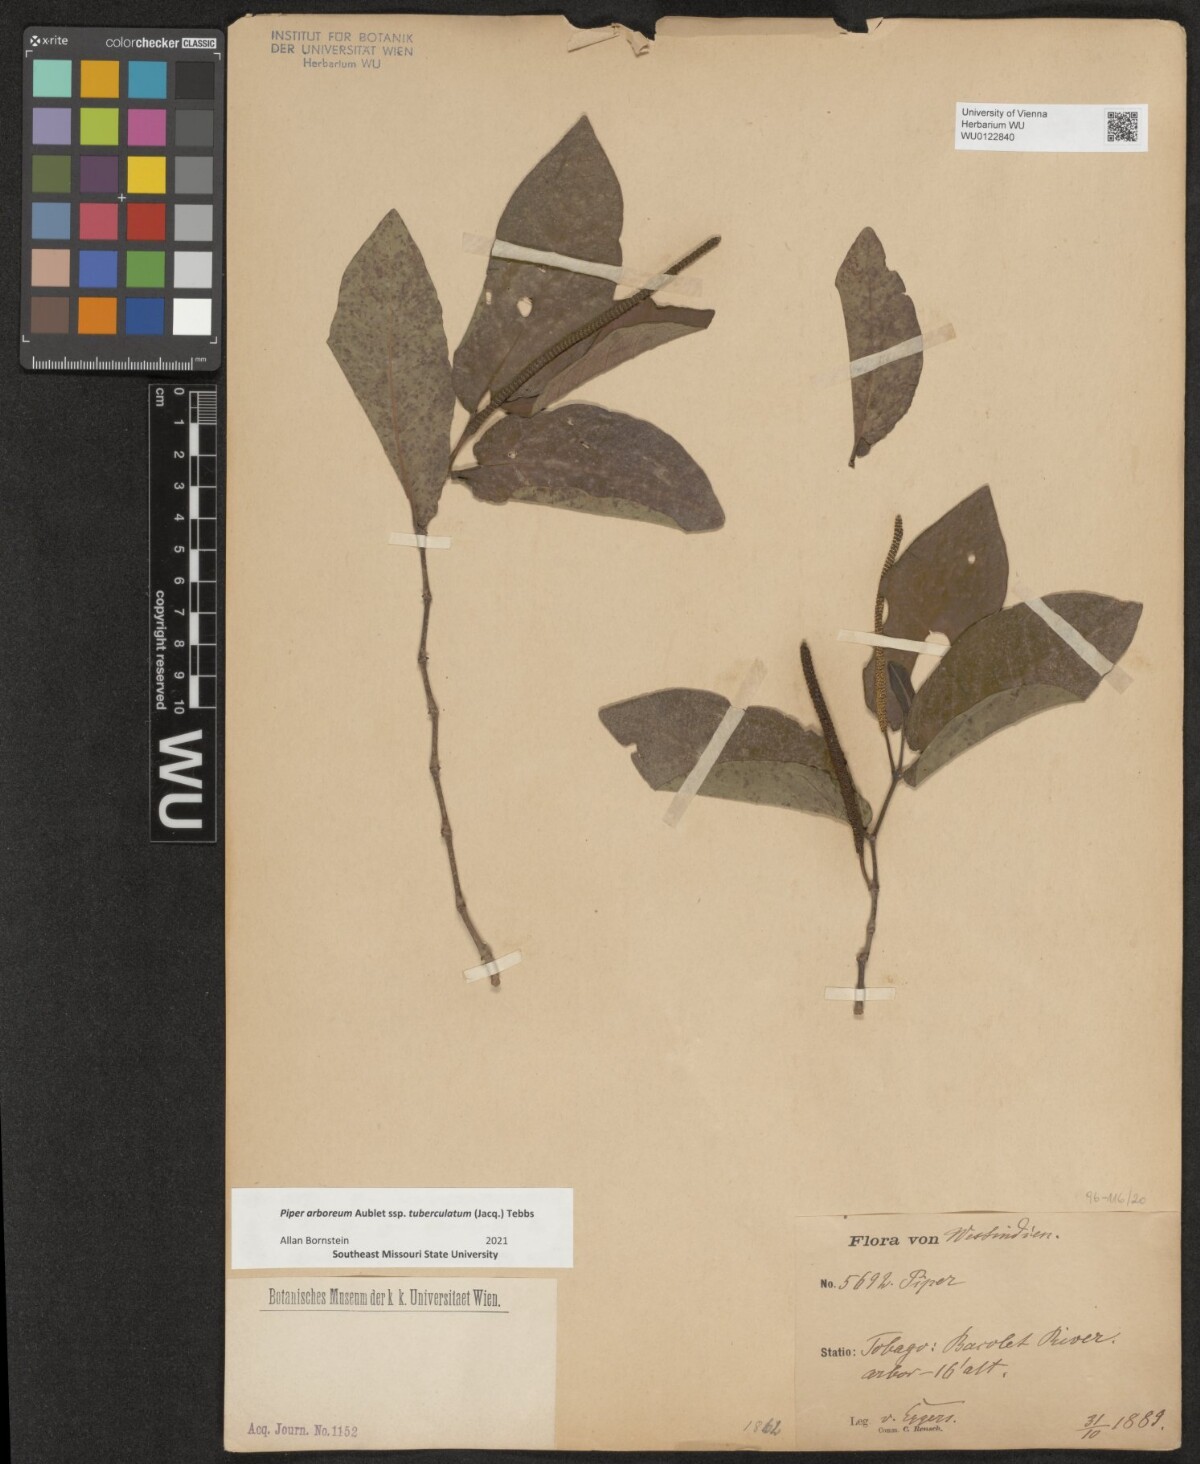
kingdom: Plantae
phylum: Tracheophyta
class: Magnoliopsida
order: Piperales
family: Piperaceae
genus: Piper
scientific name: Piper tuberculatum
